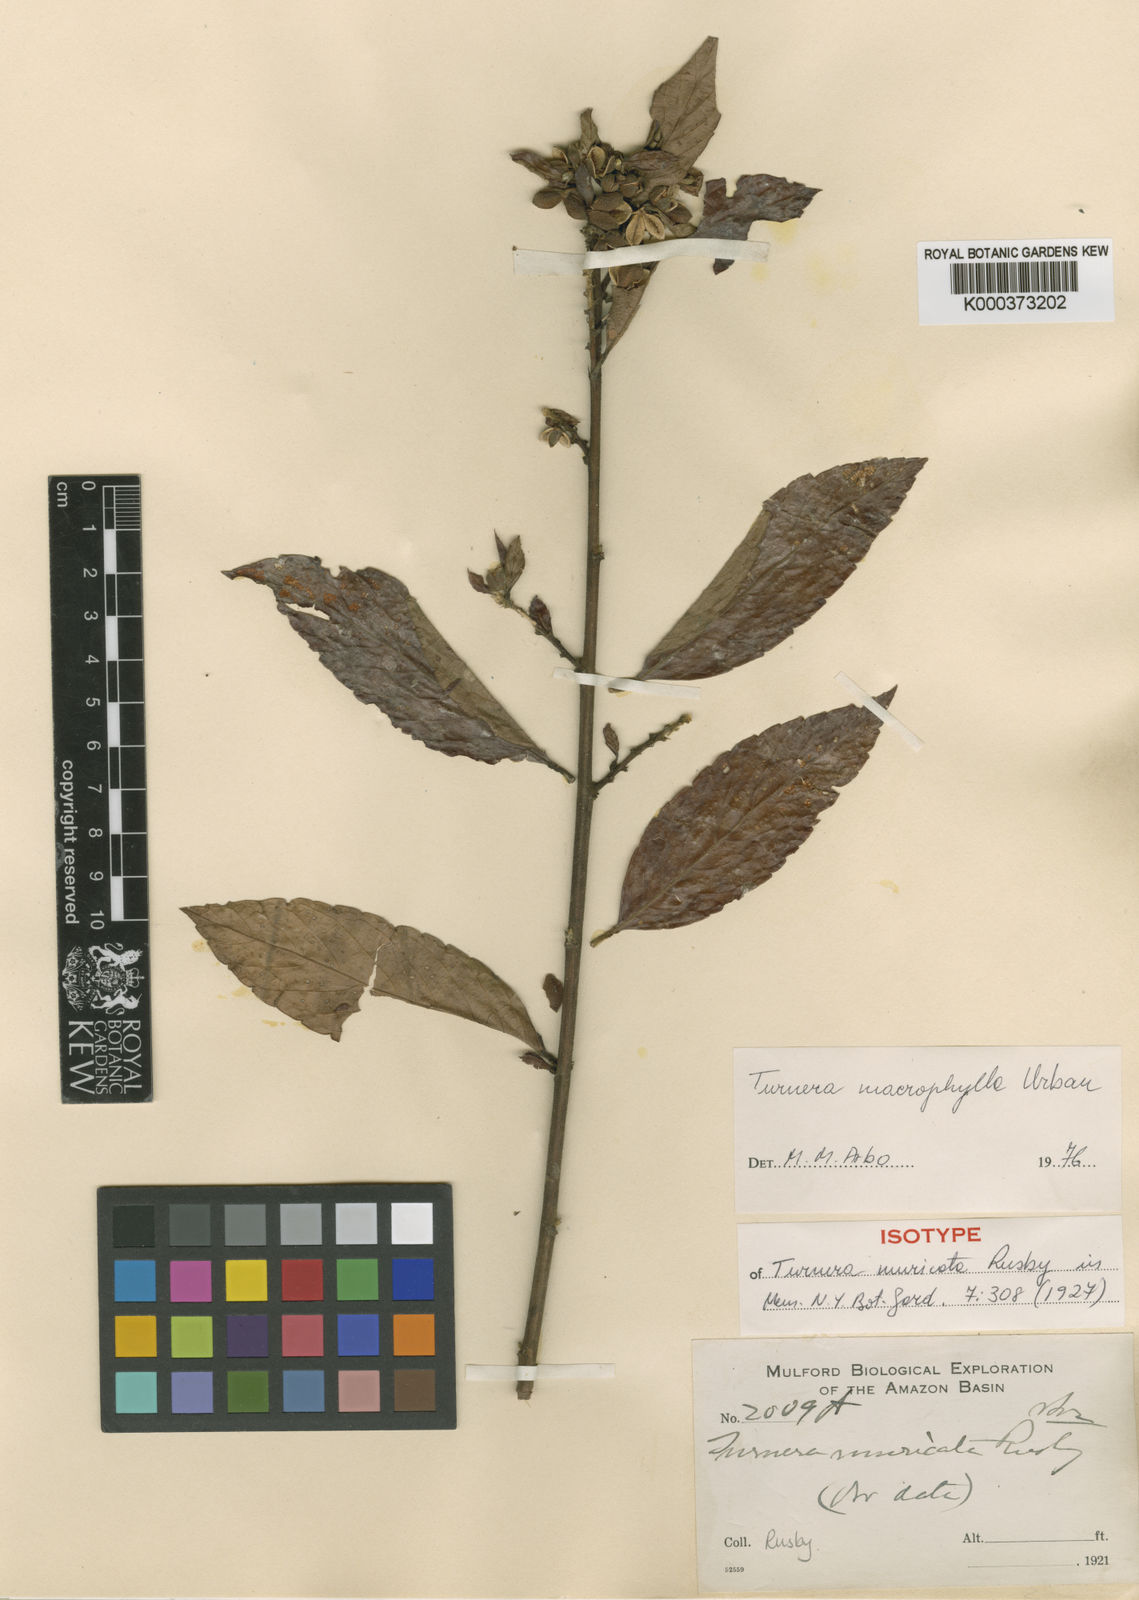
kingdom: Plantae
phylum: Tracheophyta
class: Magnoliopsida
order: Malpighiales
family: Turneraceae
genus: Turnera
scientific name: Turnera macrophylla
